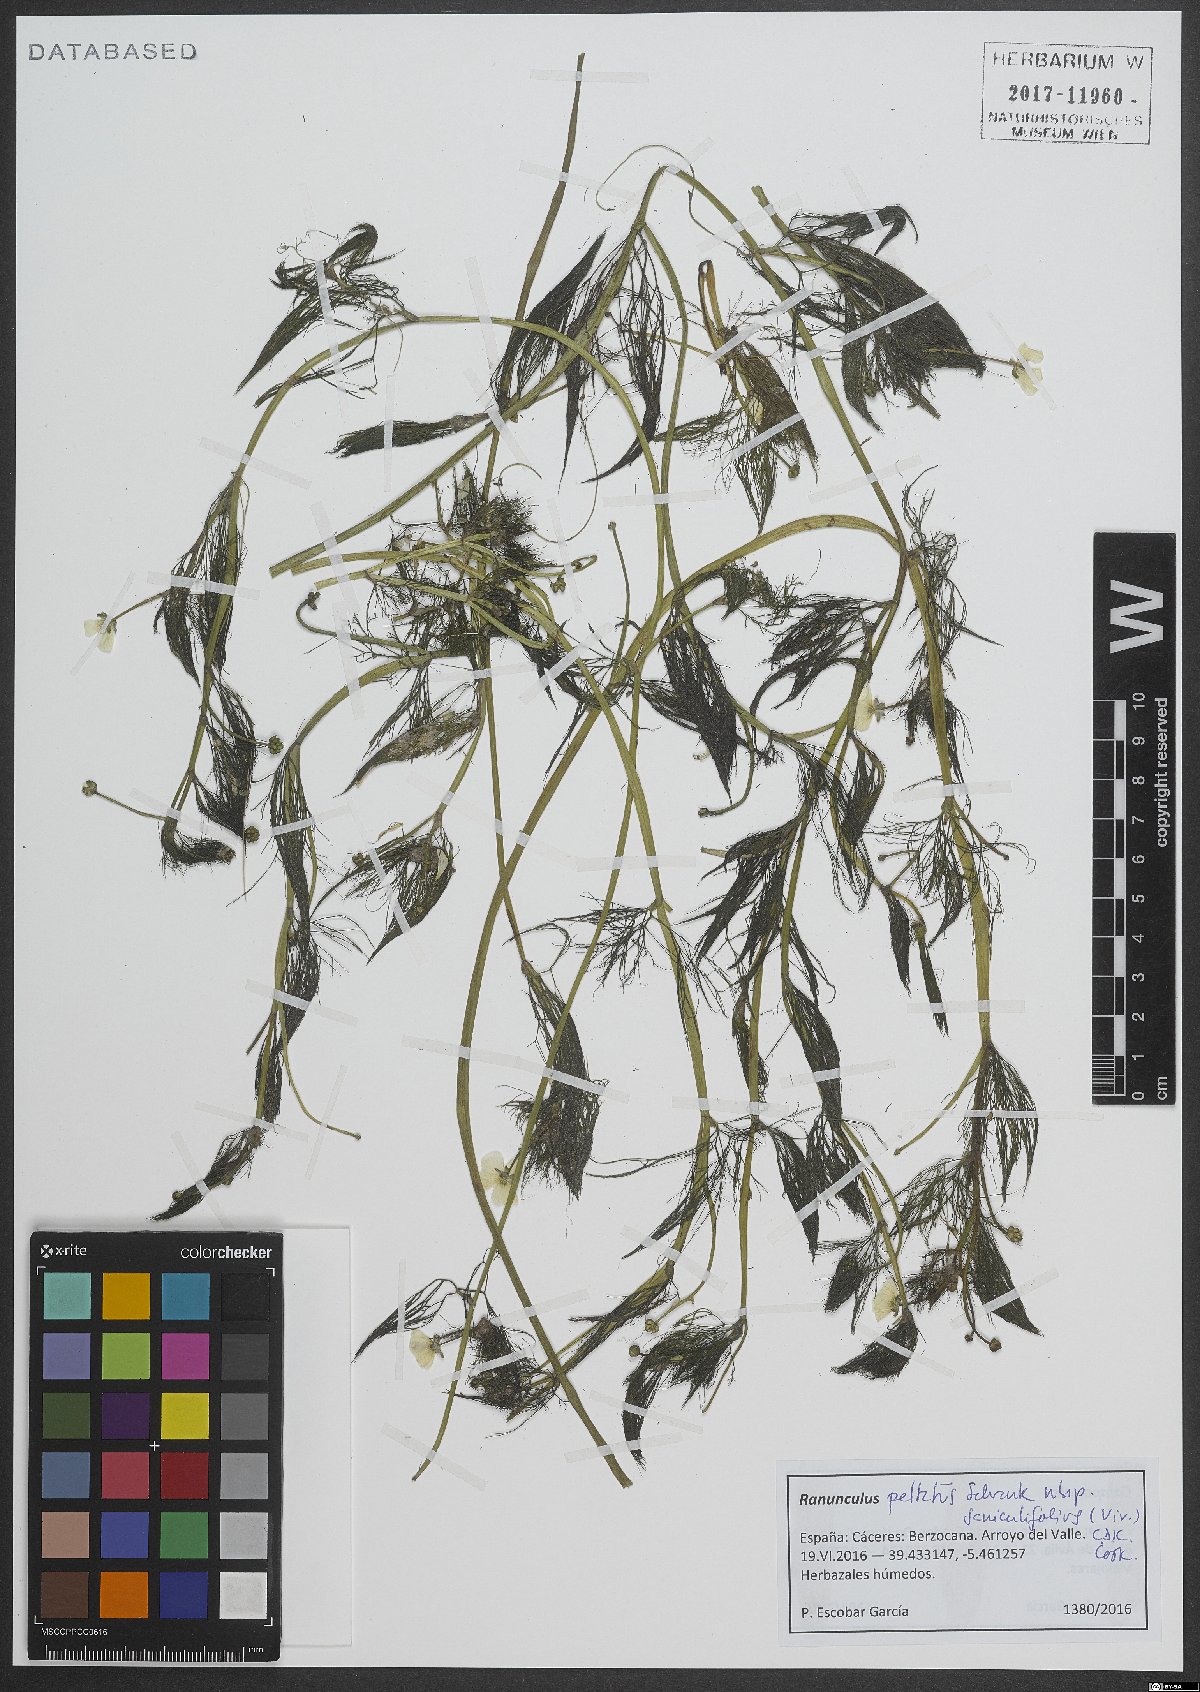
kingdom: Plantae
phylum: Tracheophyta
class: Magnoliopsida
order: Ranunculales
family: Ranunculaceae
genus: Ranunculus
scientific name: Ranunculus peltatus
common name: Pond water-crowfoot
